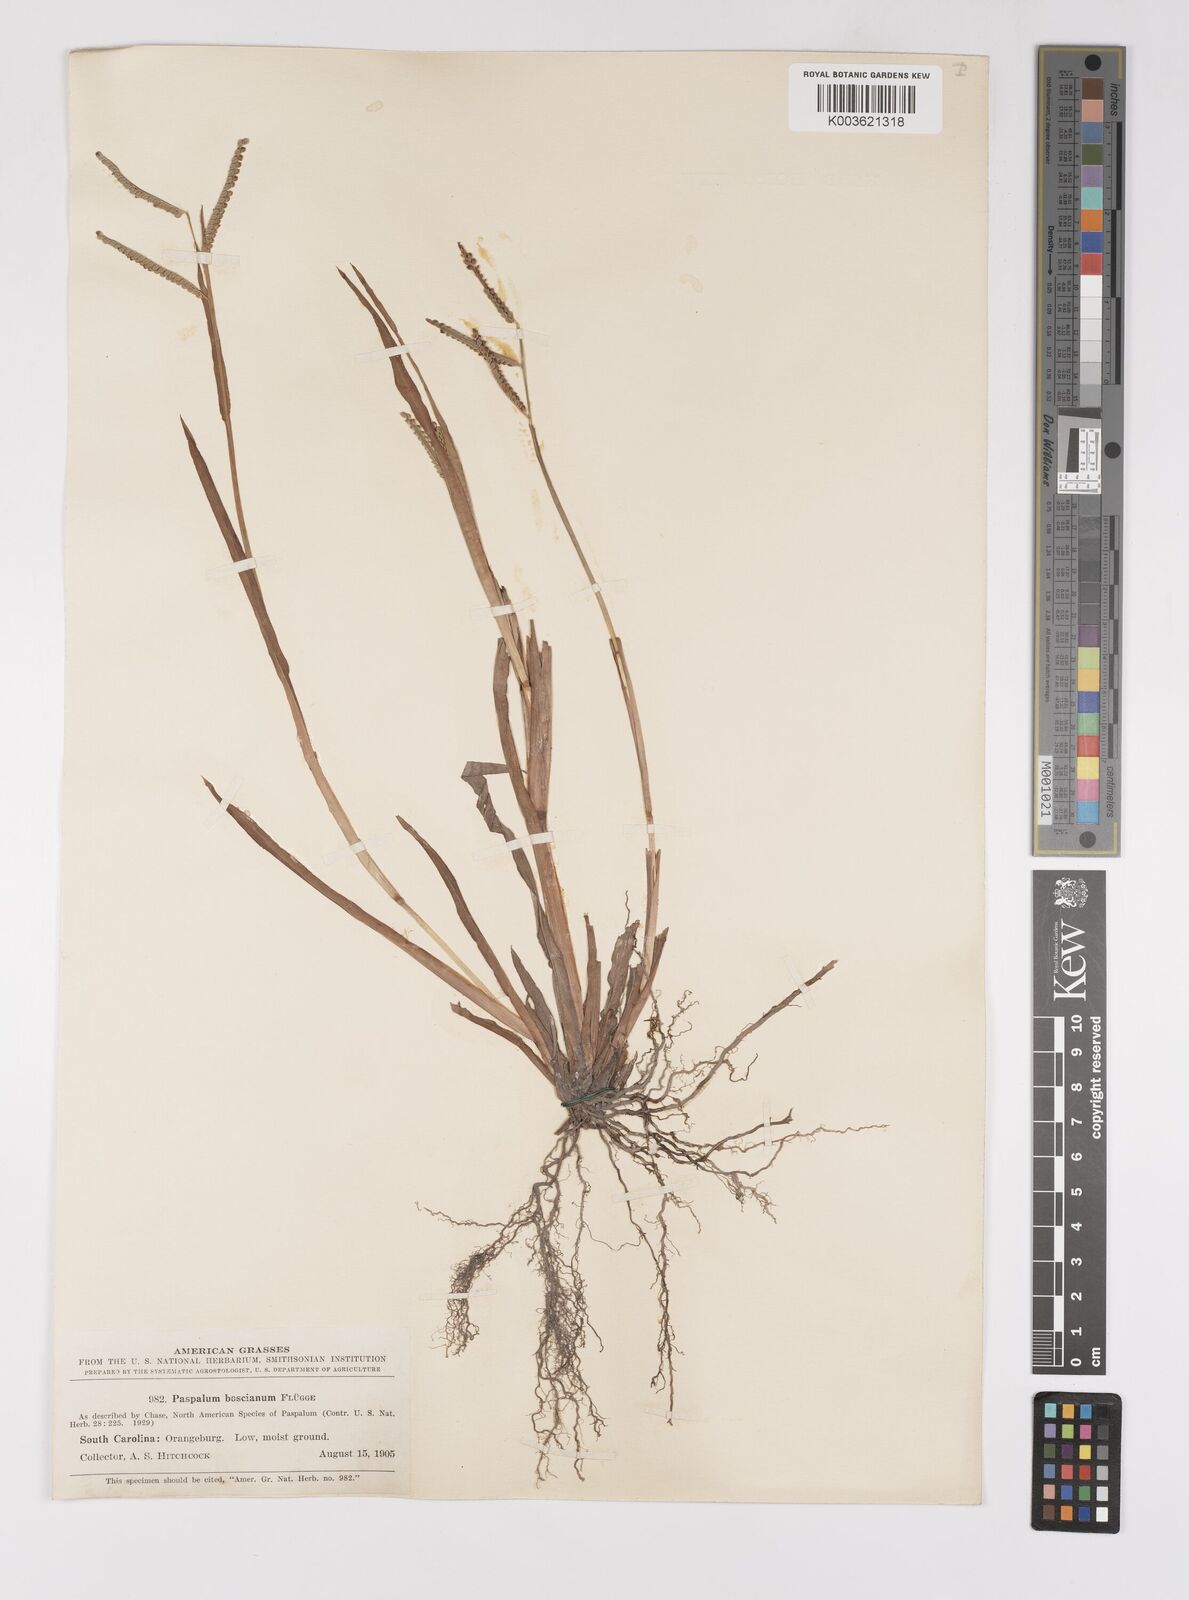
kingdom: Plantae
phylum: Tracheophyta
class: Liliopsida
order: Poales
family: Poaceae
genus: Paspalum
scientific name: Paspalum scrobiculatum
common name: Kodo millet
